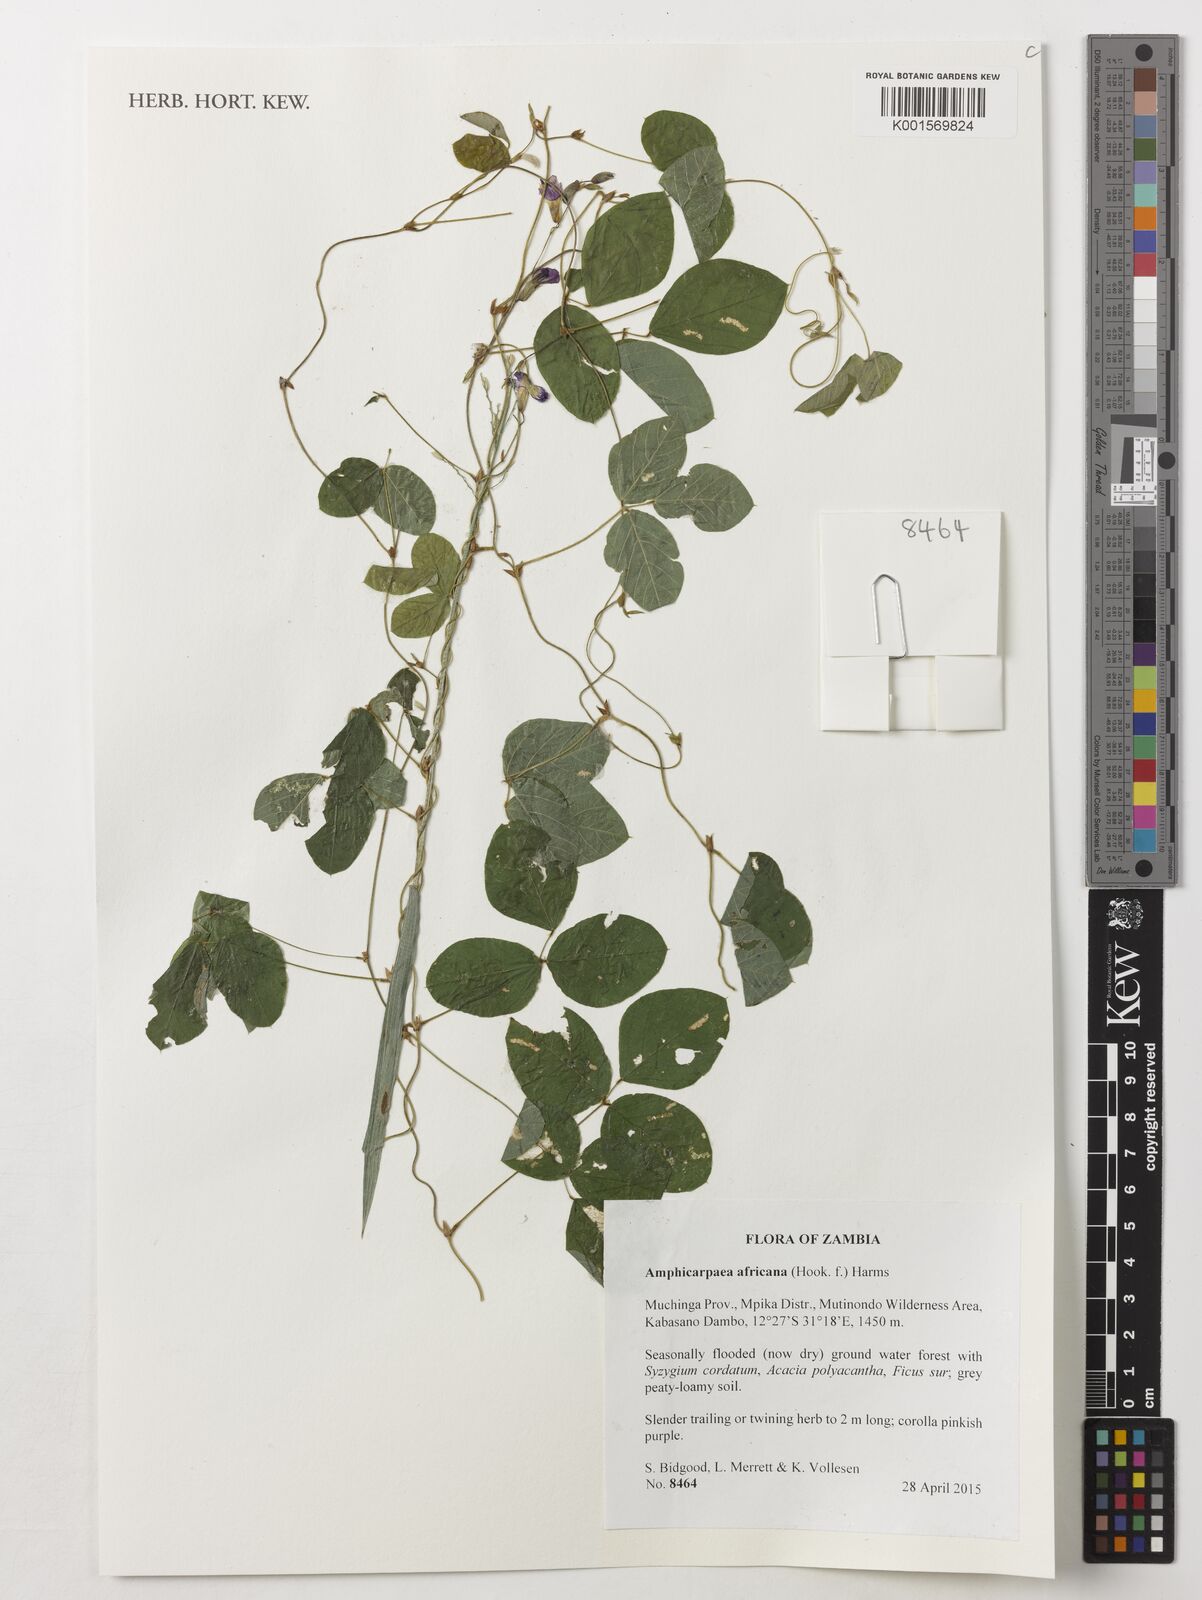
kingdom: Plantae
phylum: Tracheophyta
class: Magnoliopsida
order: Fabales
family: Fabaceae
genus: Afroamphica
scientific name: Afroamphica africana
